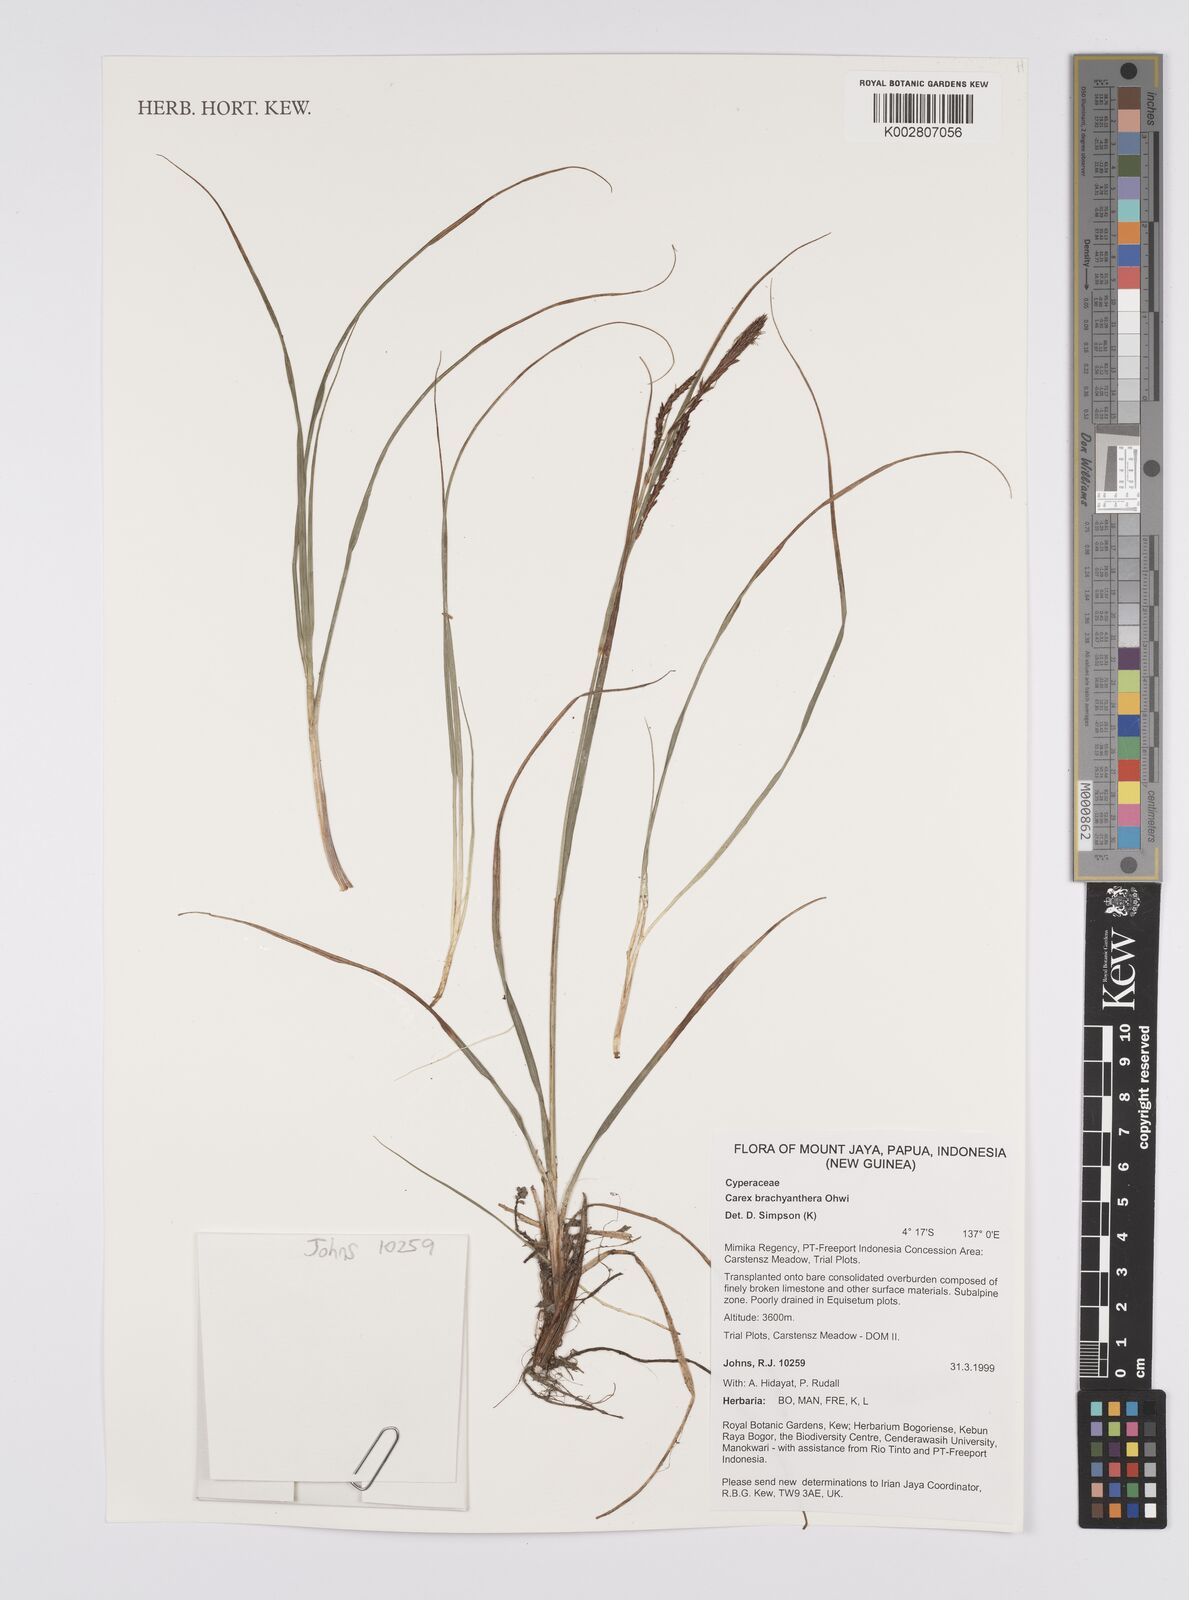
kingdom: Plantae
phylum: Tracheophyta
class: Liliopsida
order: Poales
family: Cyperaceae
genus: Carex
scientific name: Carex brachyanthera
